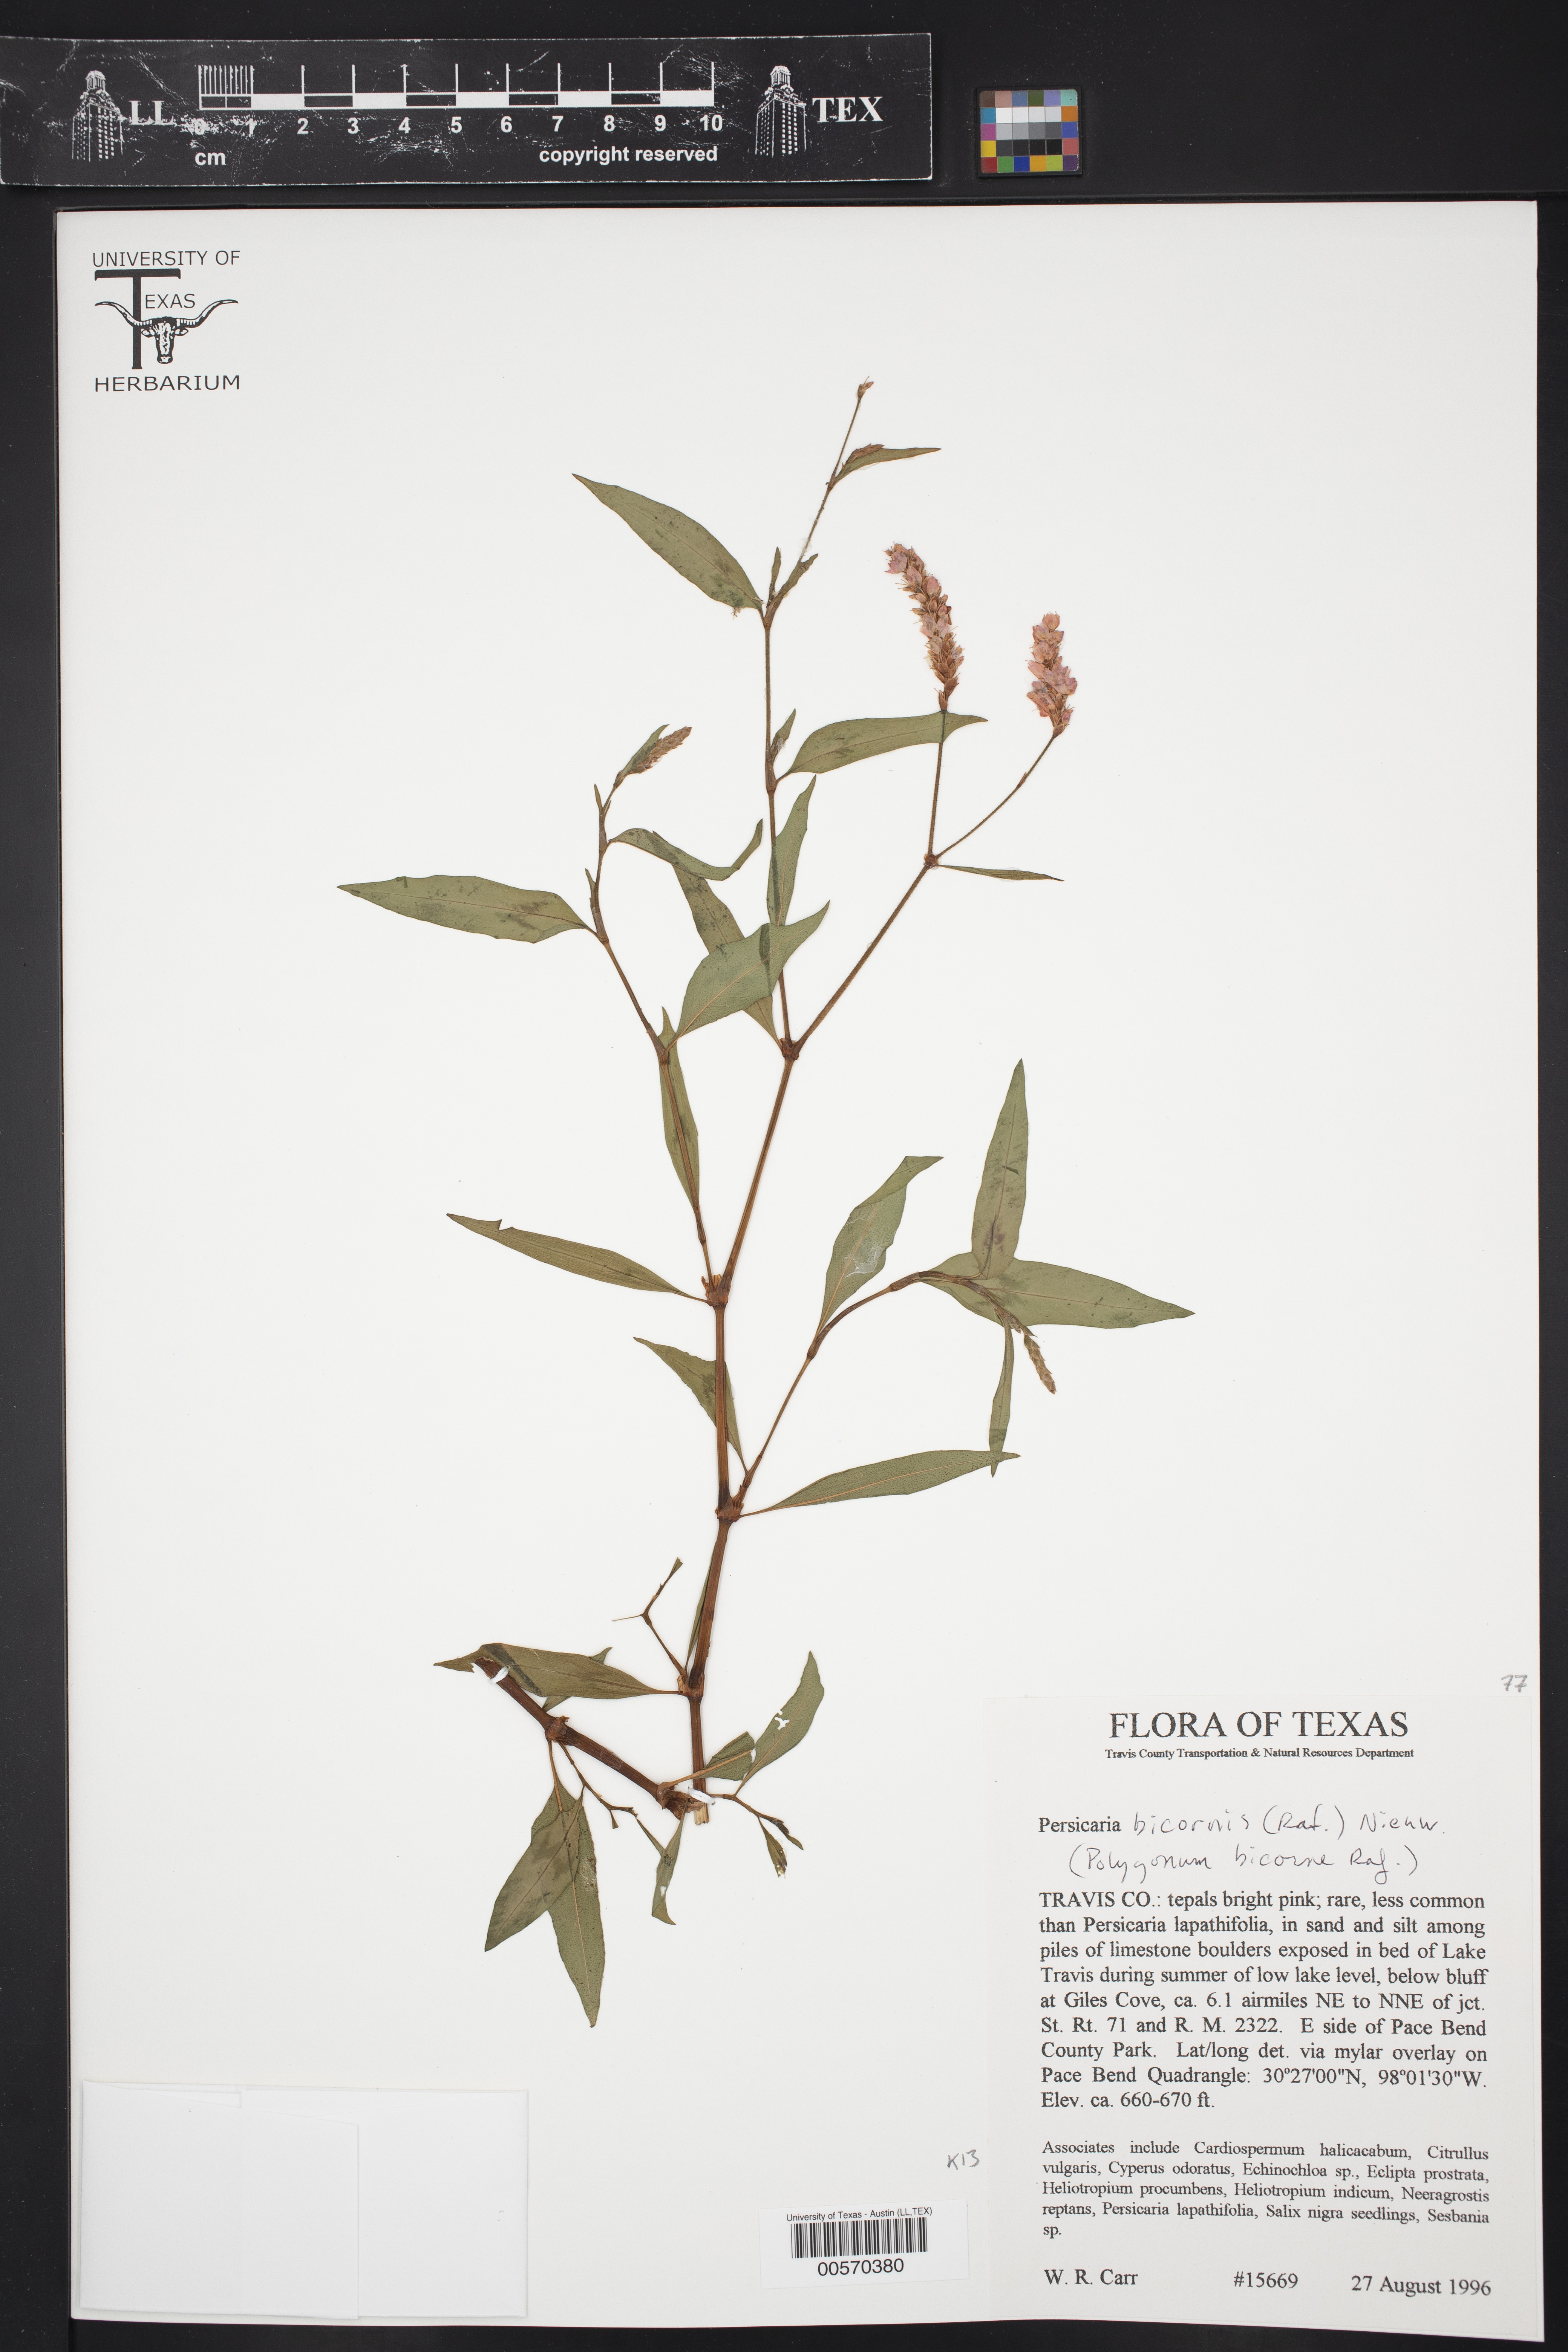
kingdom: Plantae
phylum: Tracheophyta
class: Magnoliopsida
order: Caryophyllales
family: Polygonaceae
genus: Persicaria
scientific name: Persicaria bicornis
